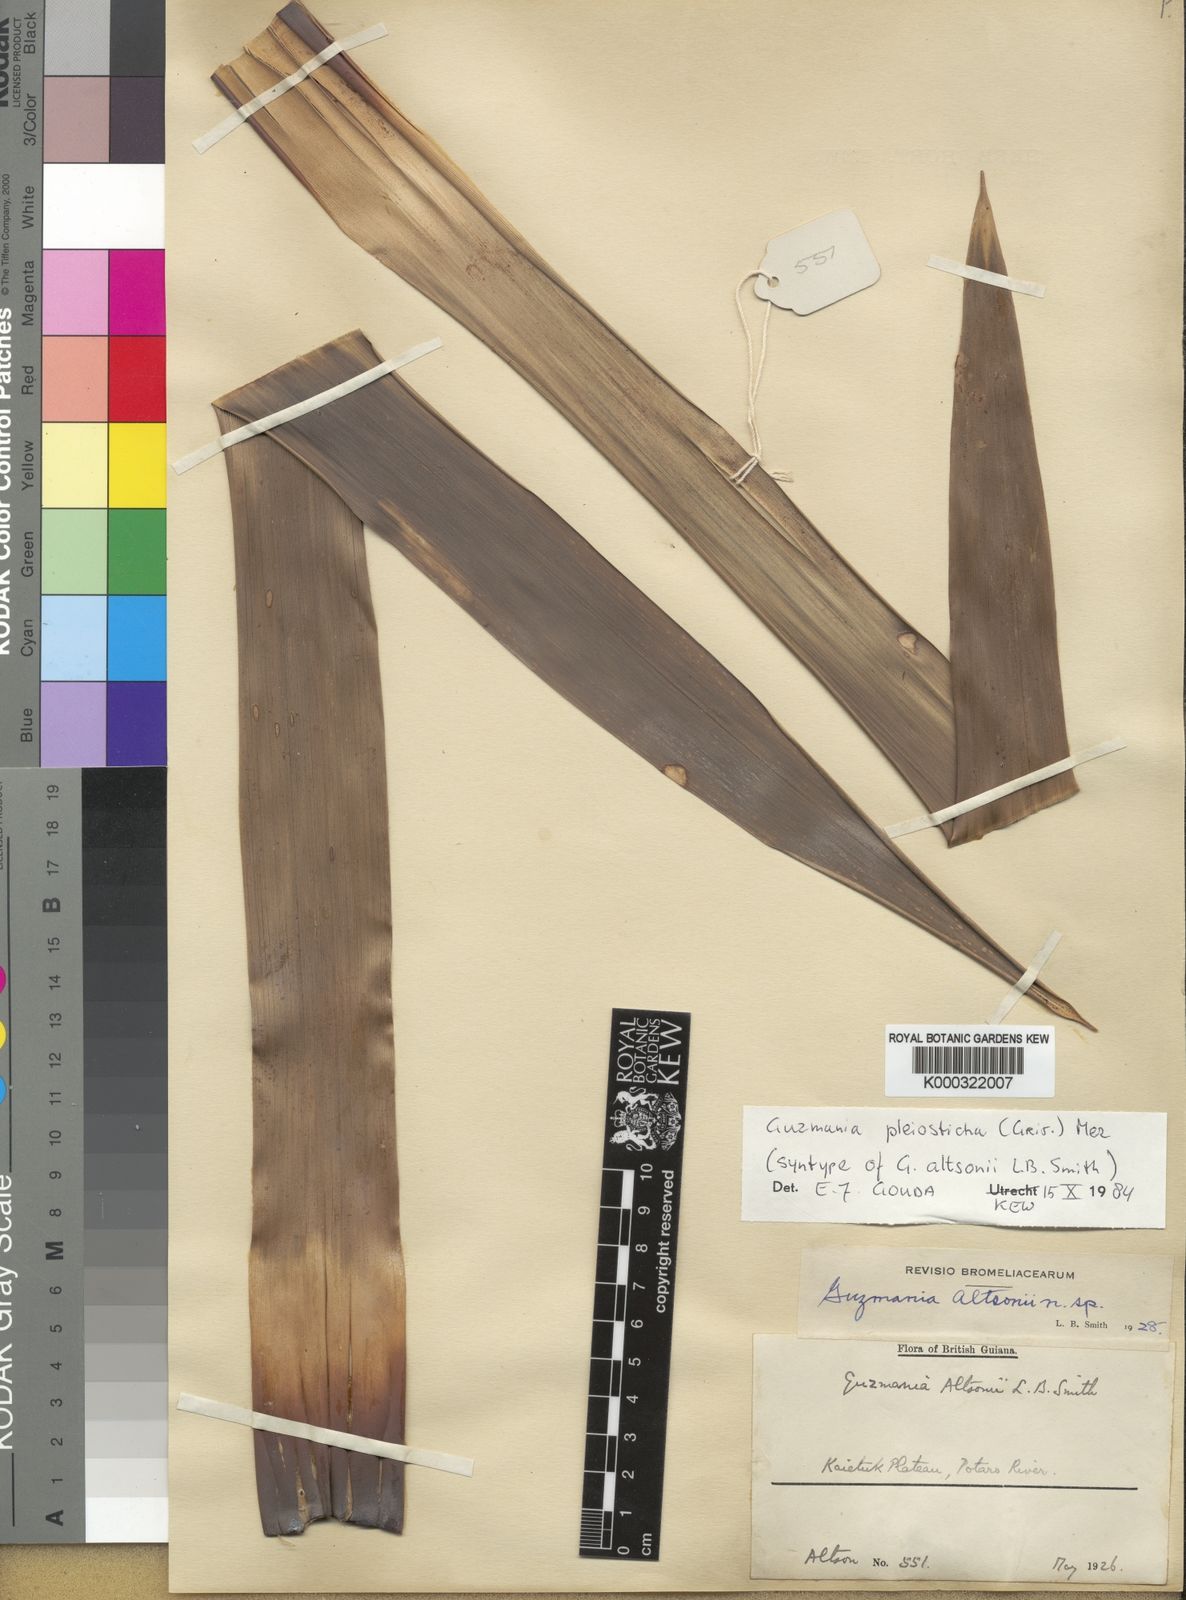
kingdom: Plantae
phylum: Tracheophyta
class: Liliopsida
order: Poales
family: Bromeliaceae
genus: Guzmania
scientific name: Guzmania altsonii
